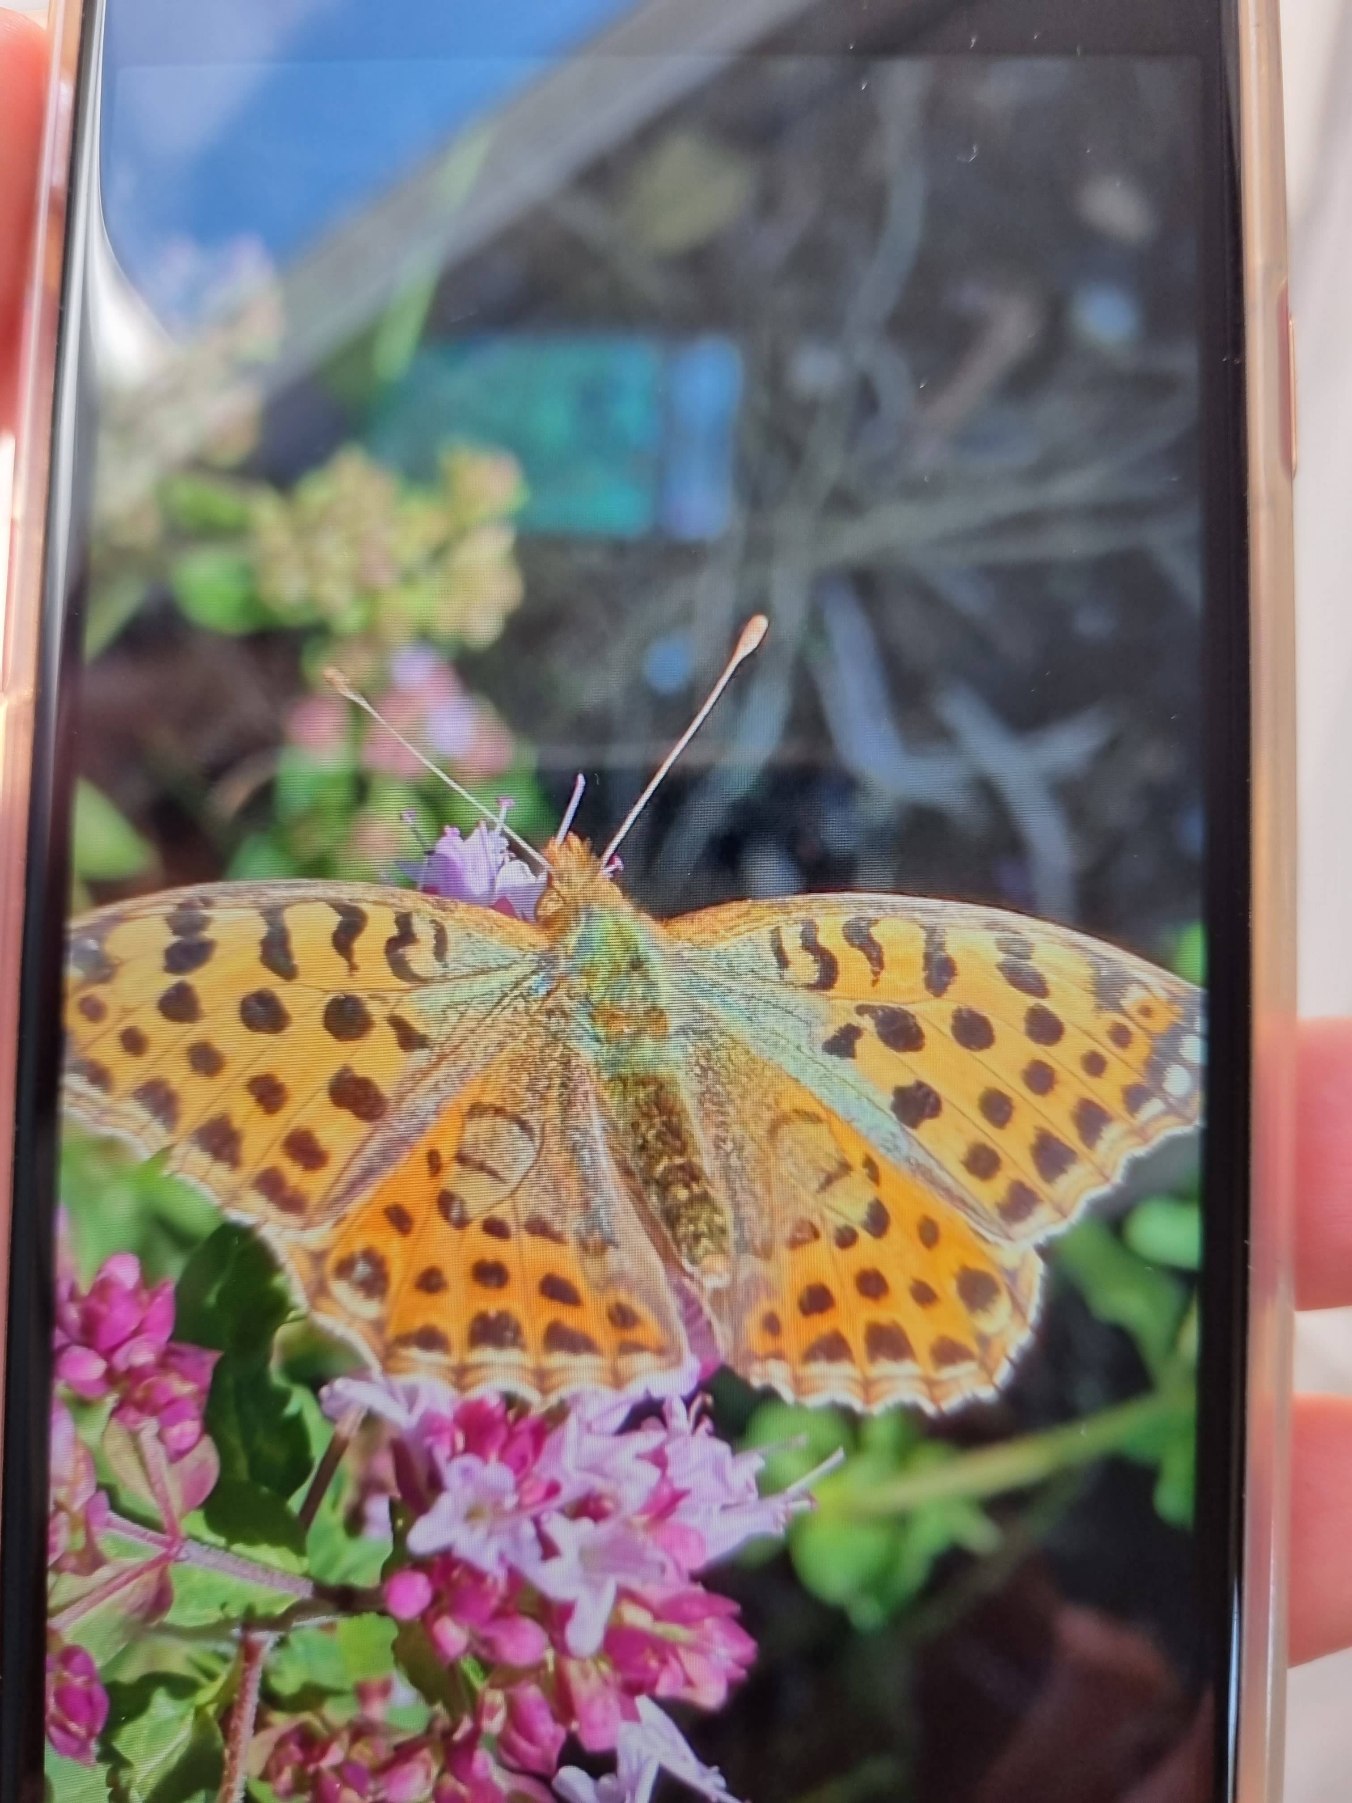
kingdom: Animalia
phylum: Arthropoda
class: Insecta
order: Lepidoptera
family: Nymphalidae
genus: Issoria
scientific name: Issoria lathonia
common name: Storplettet perlemorsommerfugl
